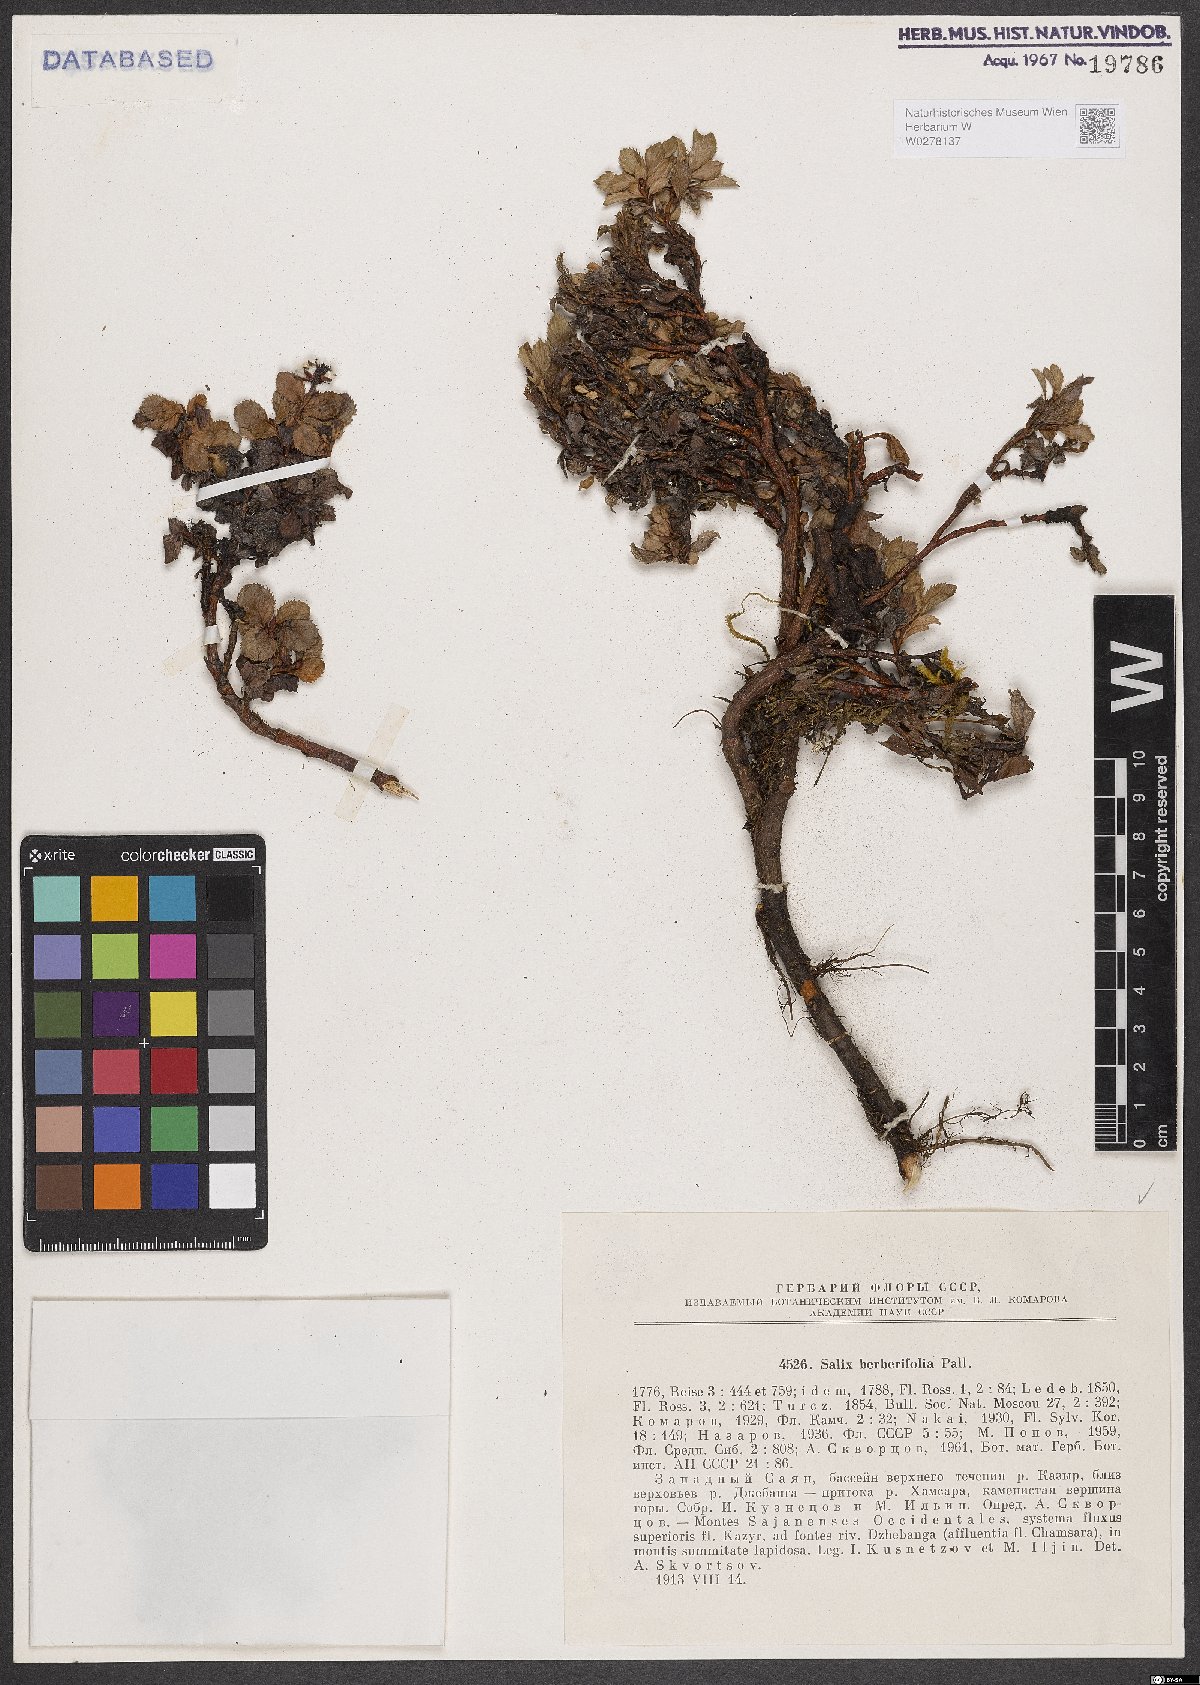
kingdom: Plantae
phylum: Tracheophyta
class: Magnoliopsida
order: Malpighiales
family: Salicaceae
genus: Salix
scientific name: Salix berberifolia
